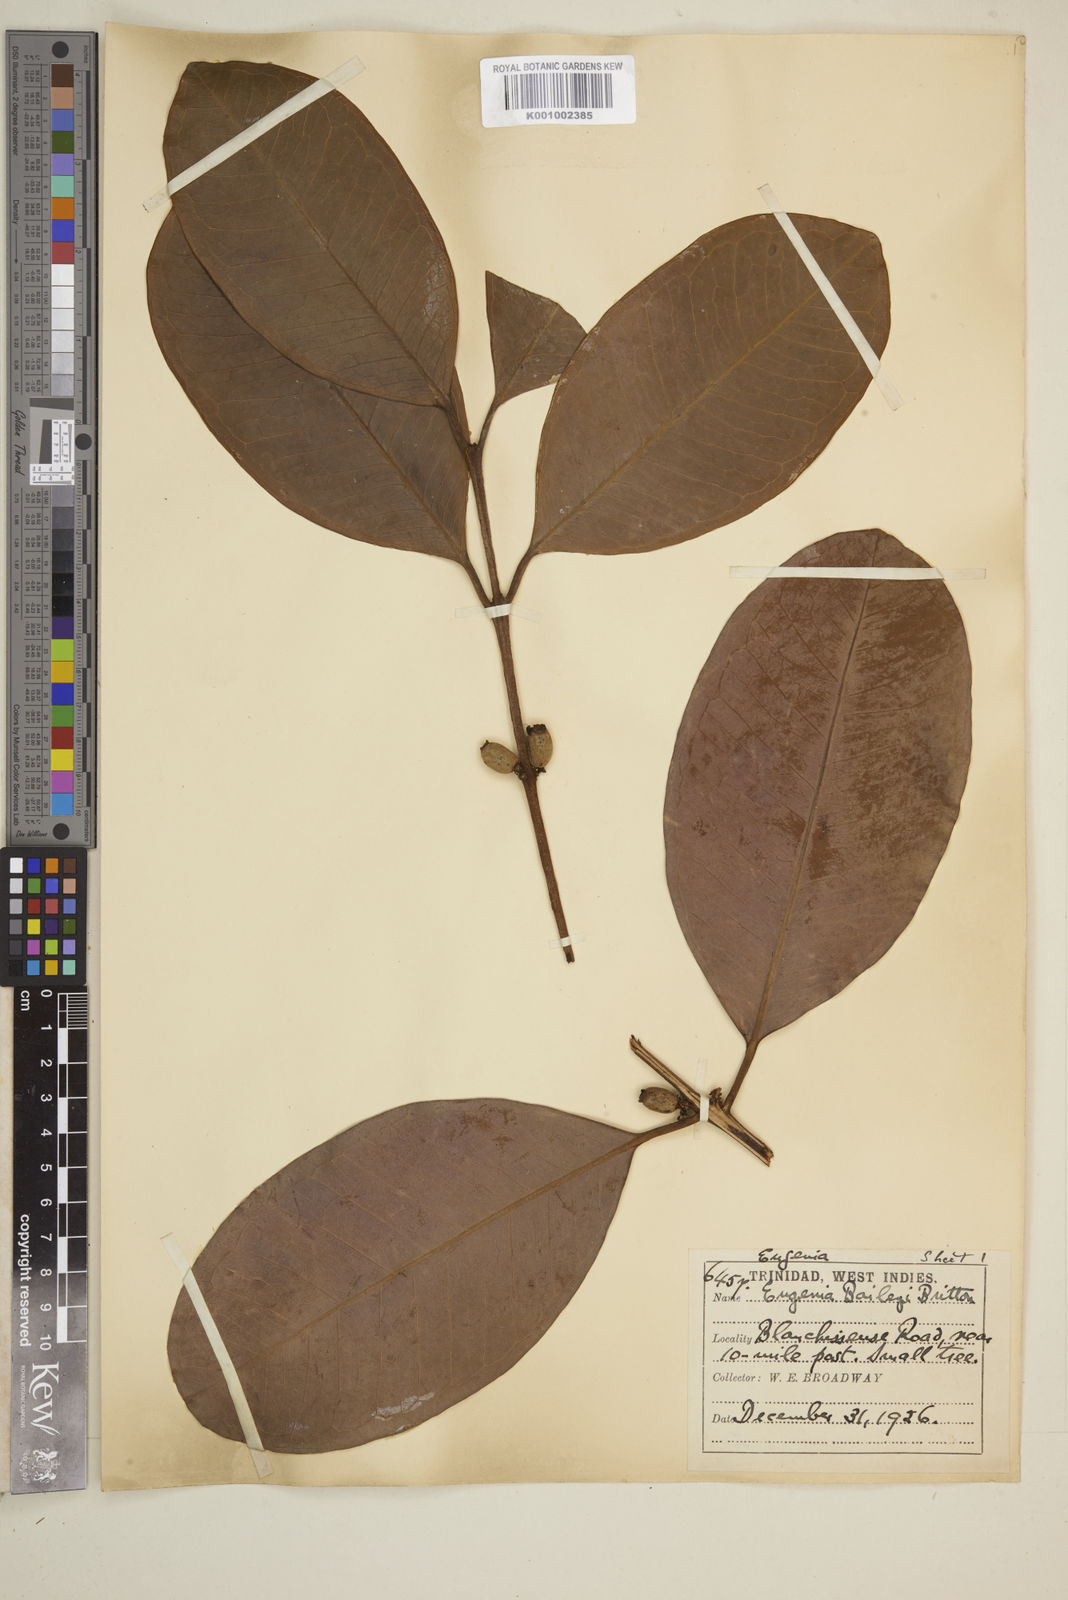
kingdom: Plantae
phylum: Tracheophyta
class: Magnoliopsida
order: Myrtales
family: Myrtaceae
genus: Eugenia
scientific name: Eugenia baileyi
